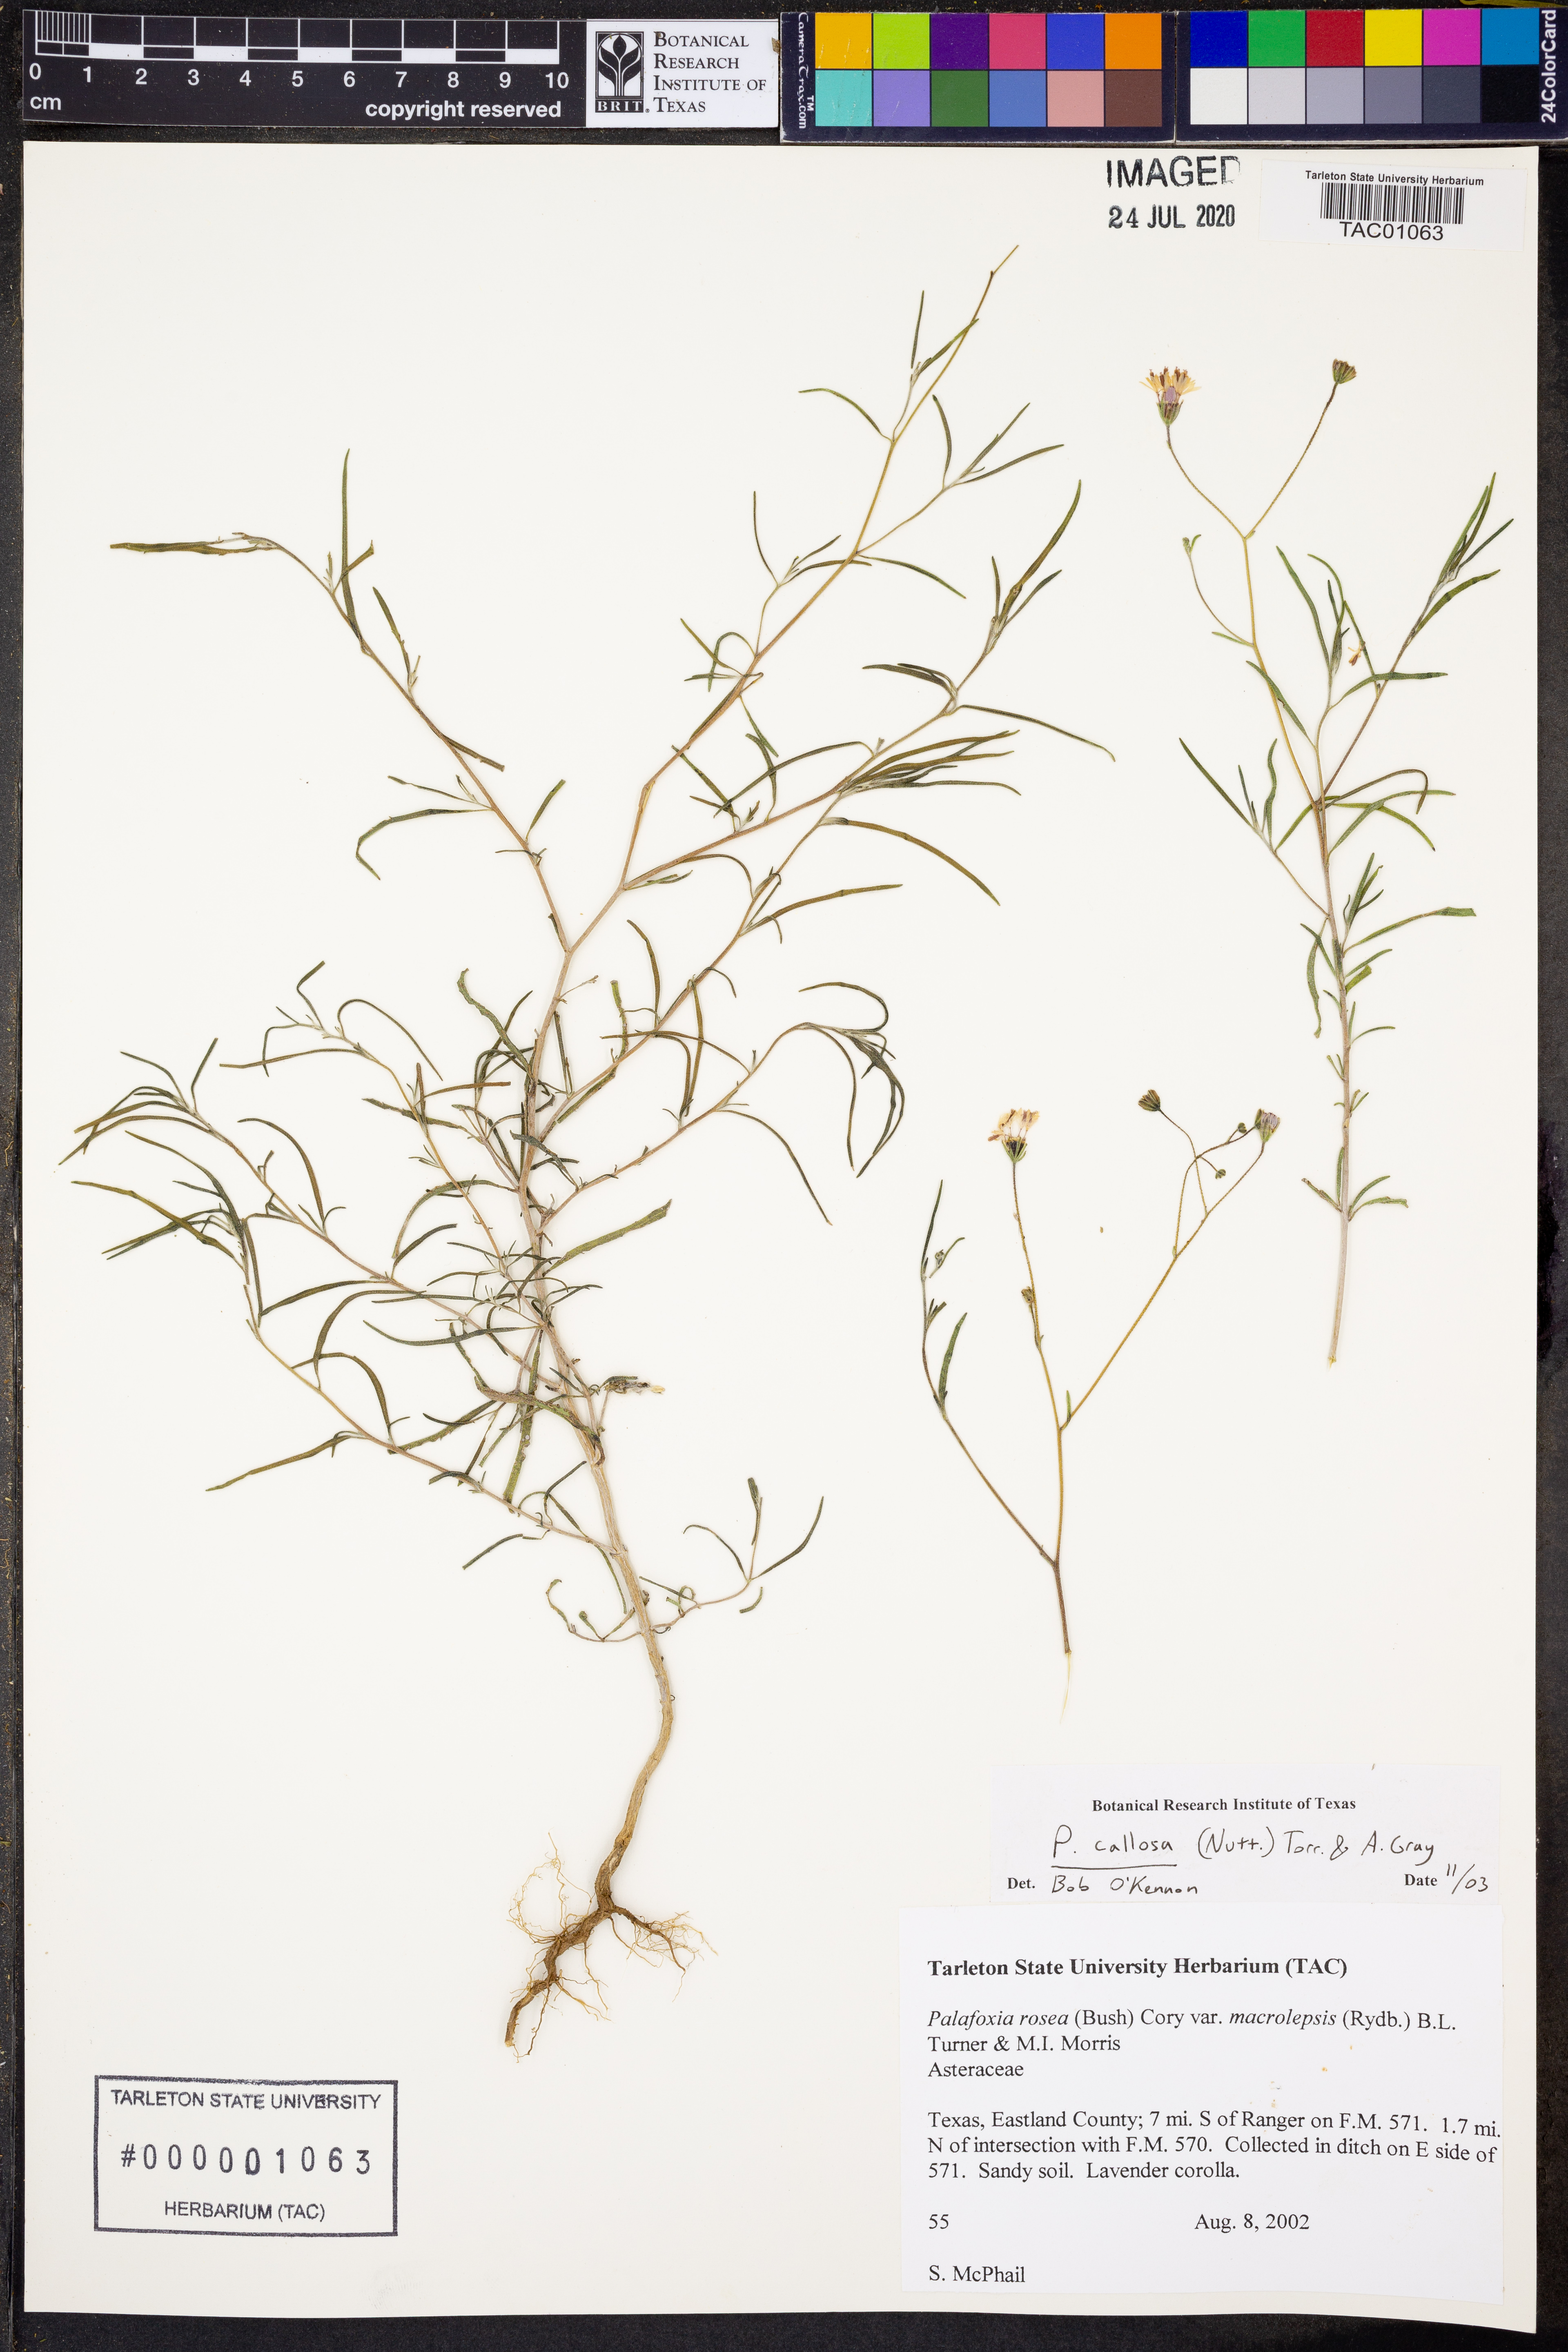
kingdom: Plantae
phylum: Tracheophyta
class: Magnoliopsida
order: Asterales
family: Asteraceae
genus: Palafoxia
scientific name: Palafoxia callosa
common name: Small palafox
